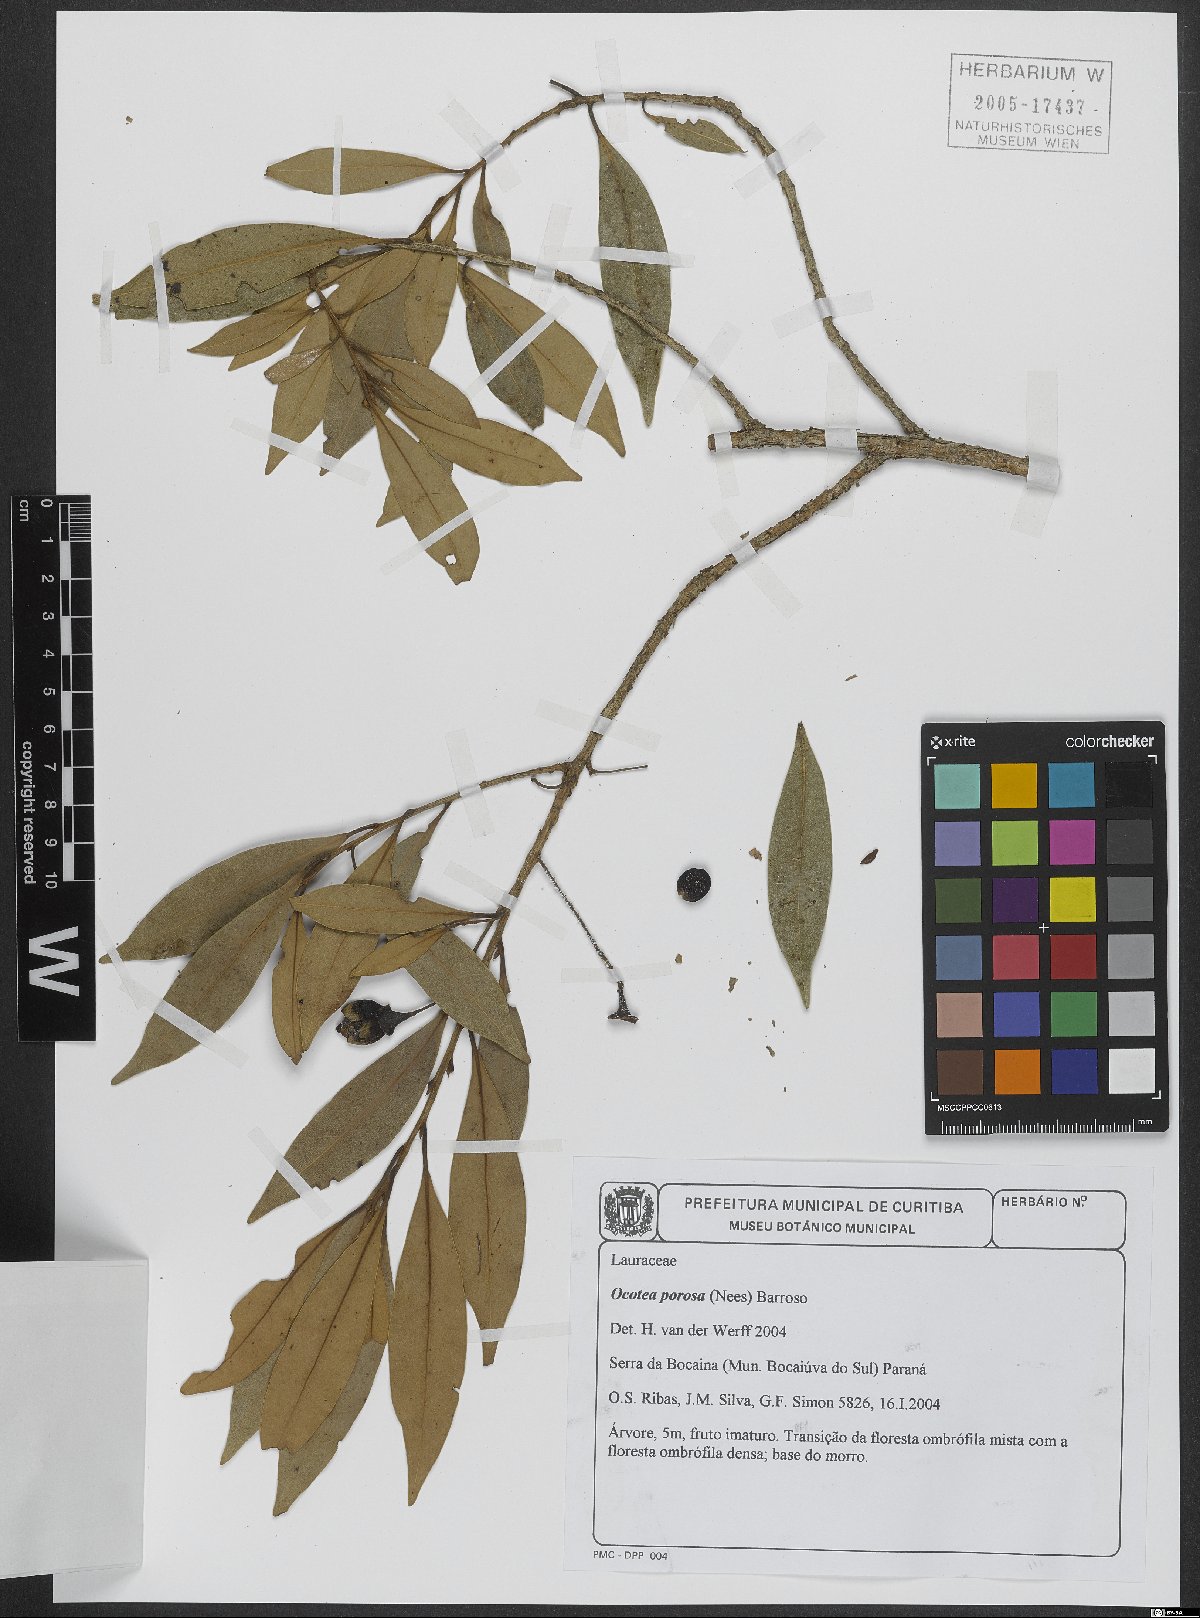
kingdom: Plantae
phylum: Tracheophyta
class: Magnoliopsida
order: Laurales
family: Lauraceae
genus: Ocotea
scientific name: Ocotea porosa
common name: Brazilian-walnut
